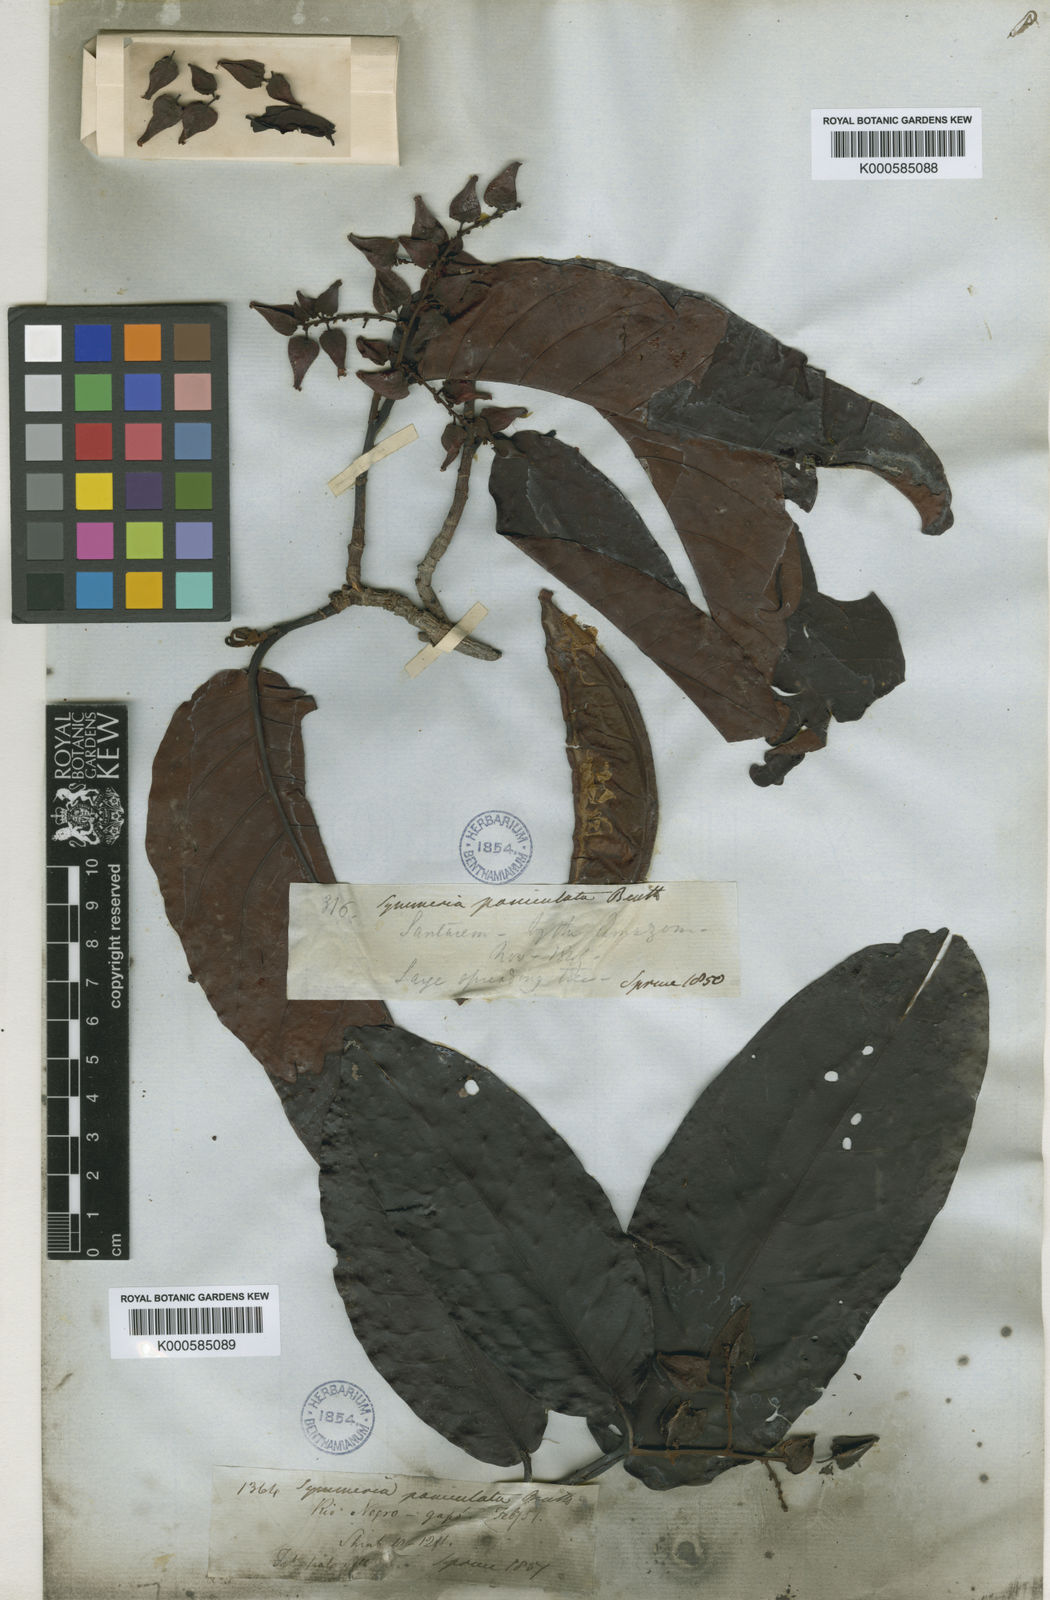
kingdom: Plantae
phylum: Tracheophyta
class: Magnoliopsida
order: Caryophyllales
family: Polygonaceae
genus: Symmeria
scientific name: Symmeria paniculata
